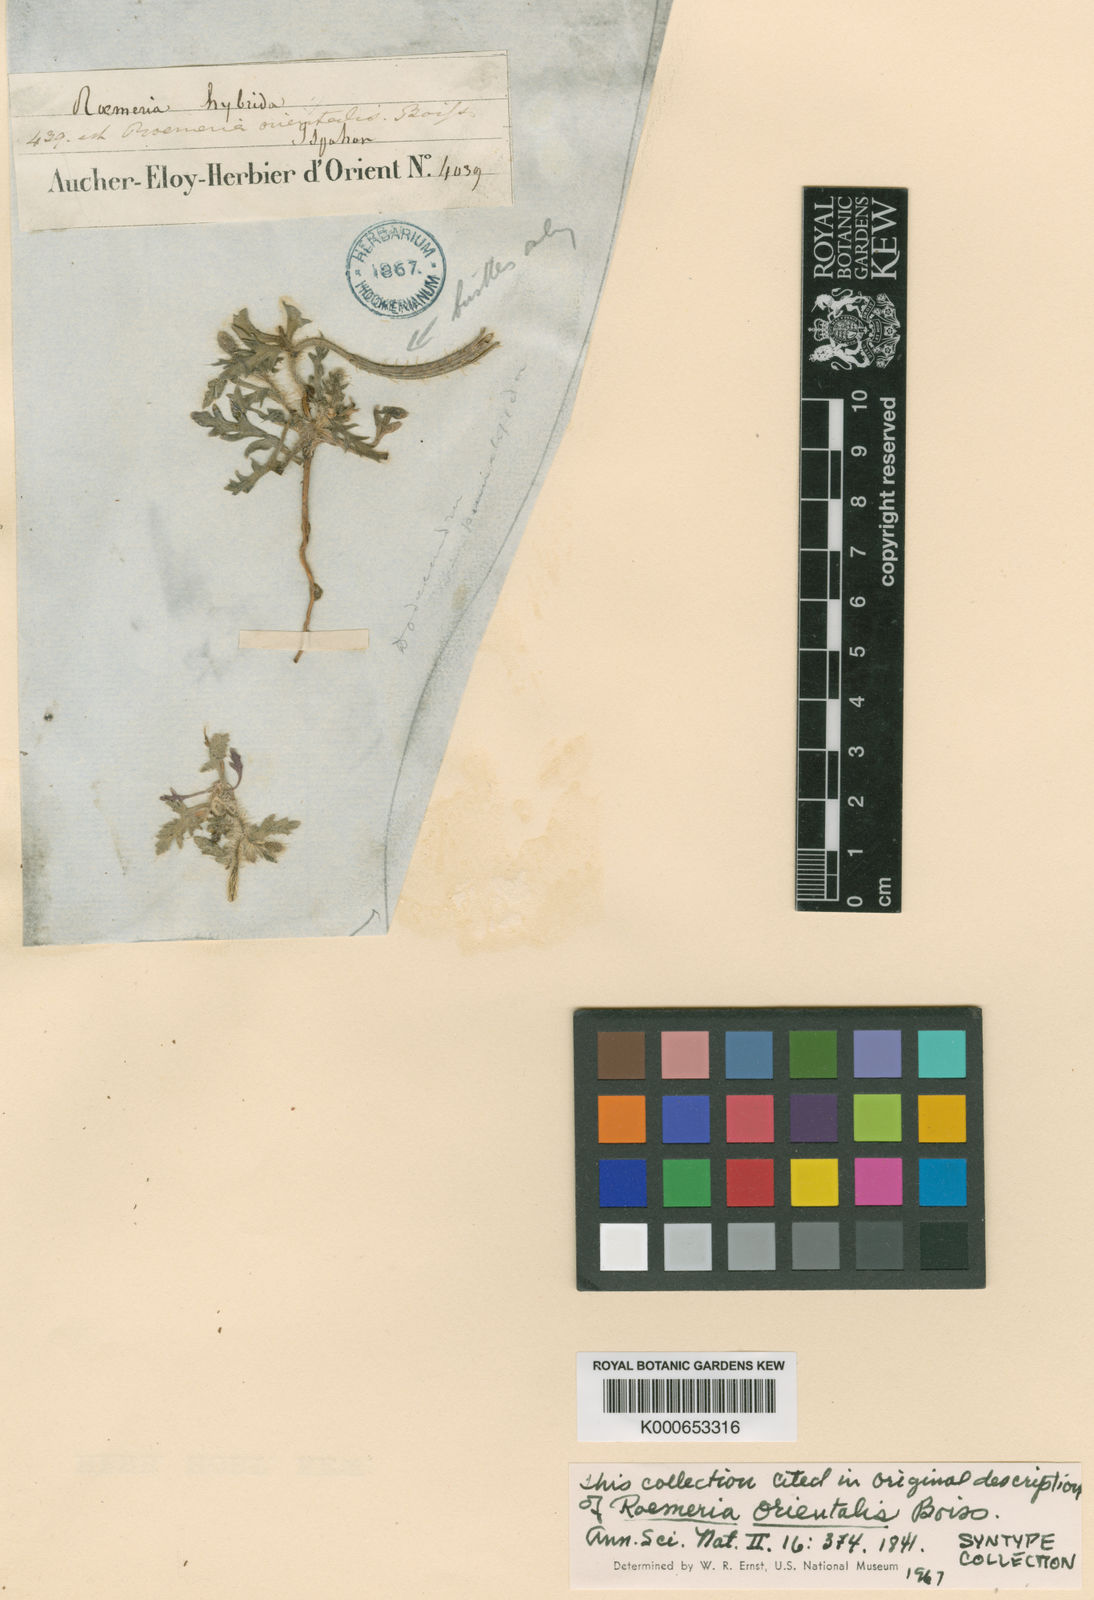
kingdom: Plantae
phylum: Tracheophyta
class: Magnoliopsida
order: Ranunculales
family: Papaveraceae
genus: Roemeria
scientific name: Roemeria hybrida
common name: Violet horned-poppy
